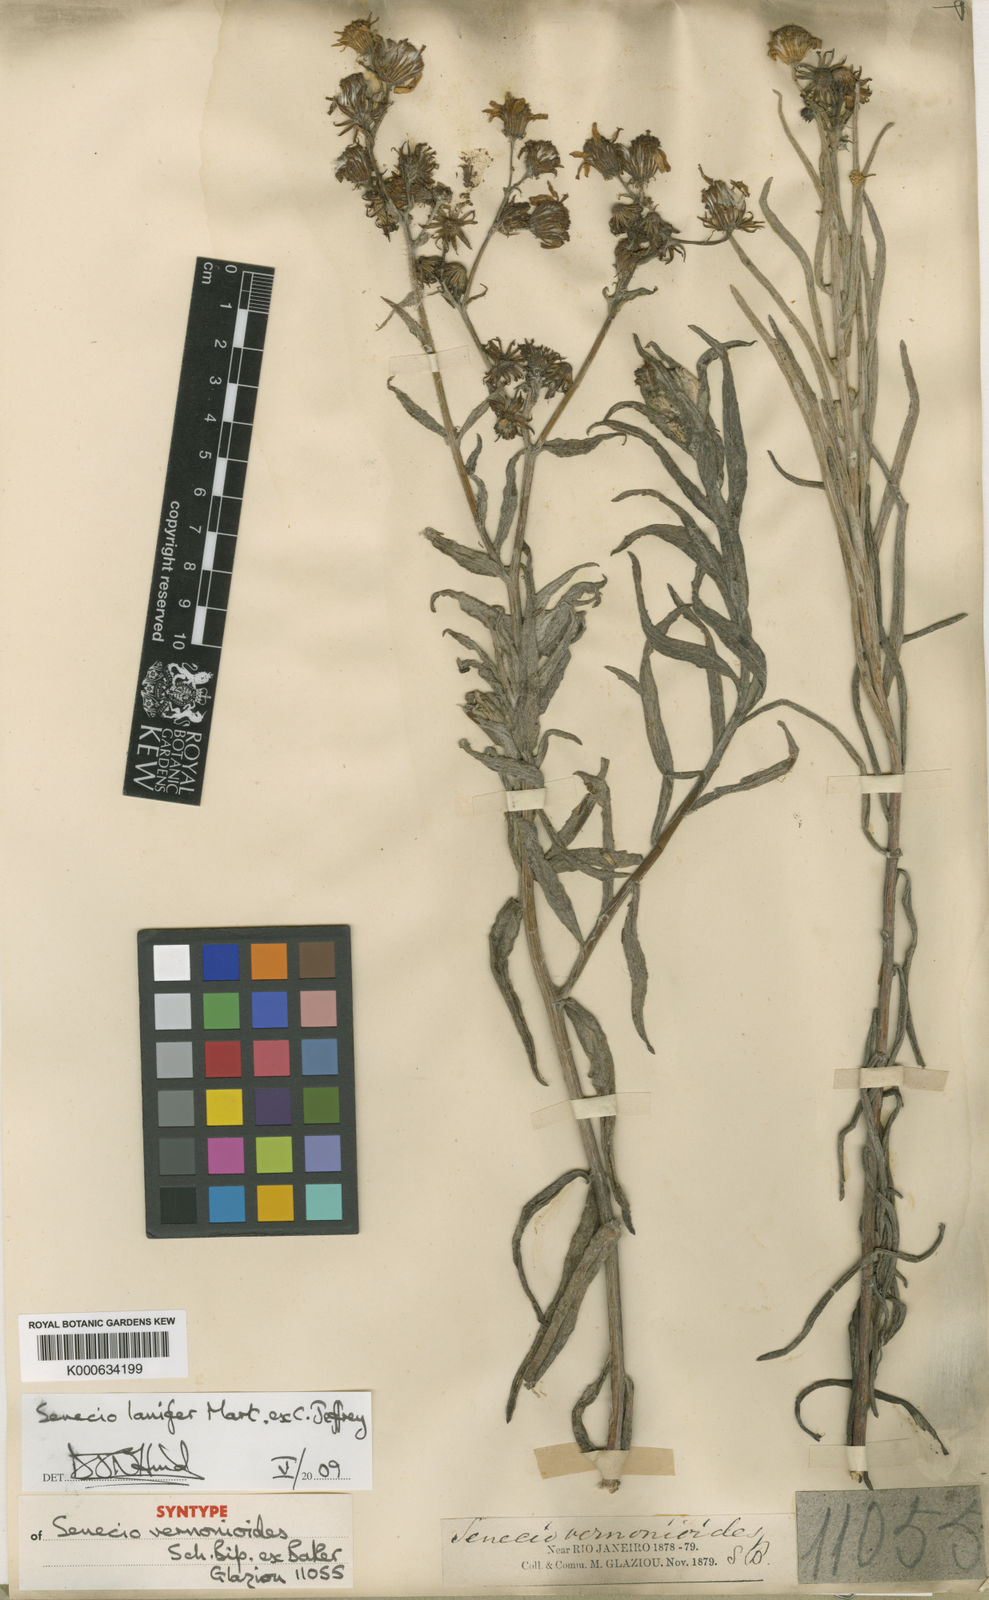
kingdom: Plantae
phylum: Tracheophyta
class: Magnoliopsida
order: Asterales
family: Asteraceae
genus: Senecio
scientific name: Senecio lanifer
